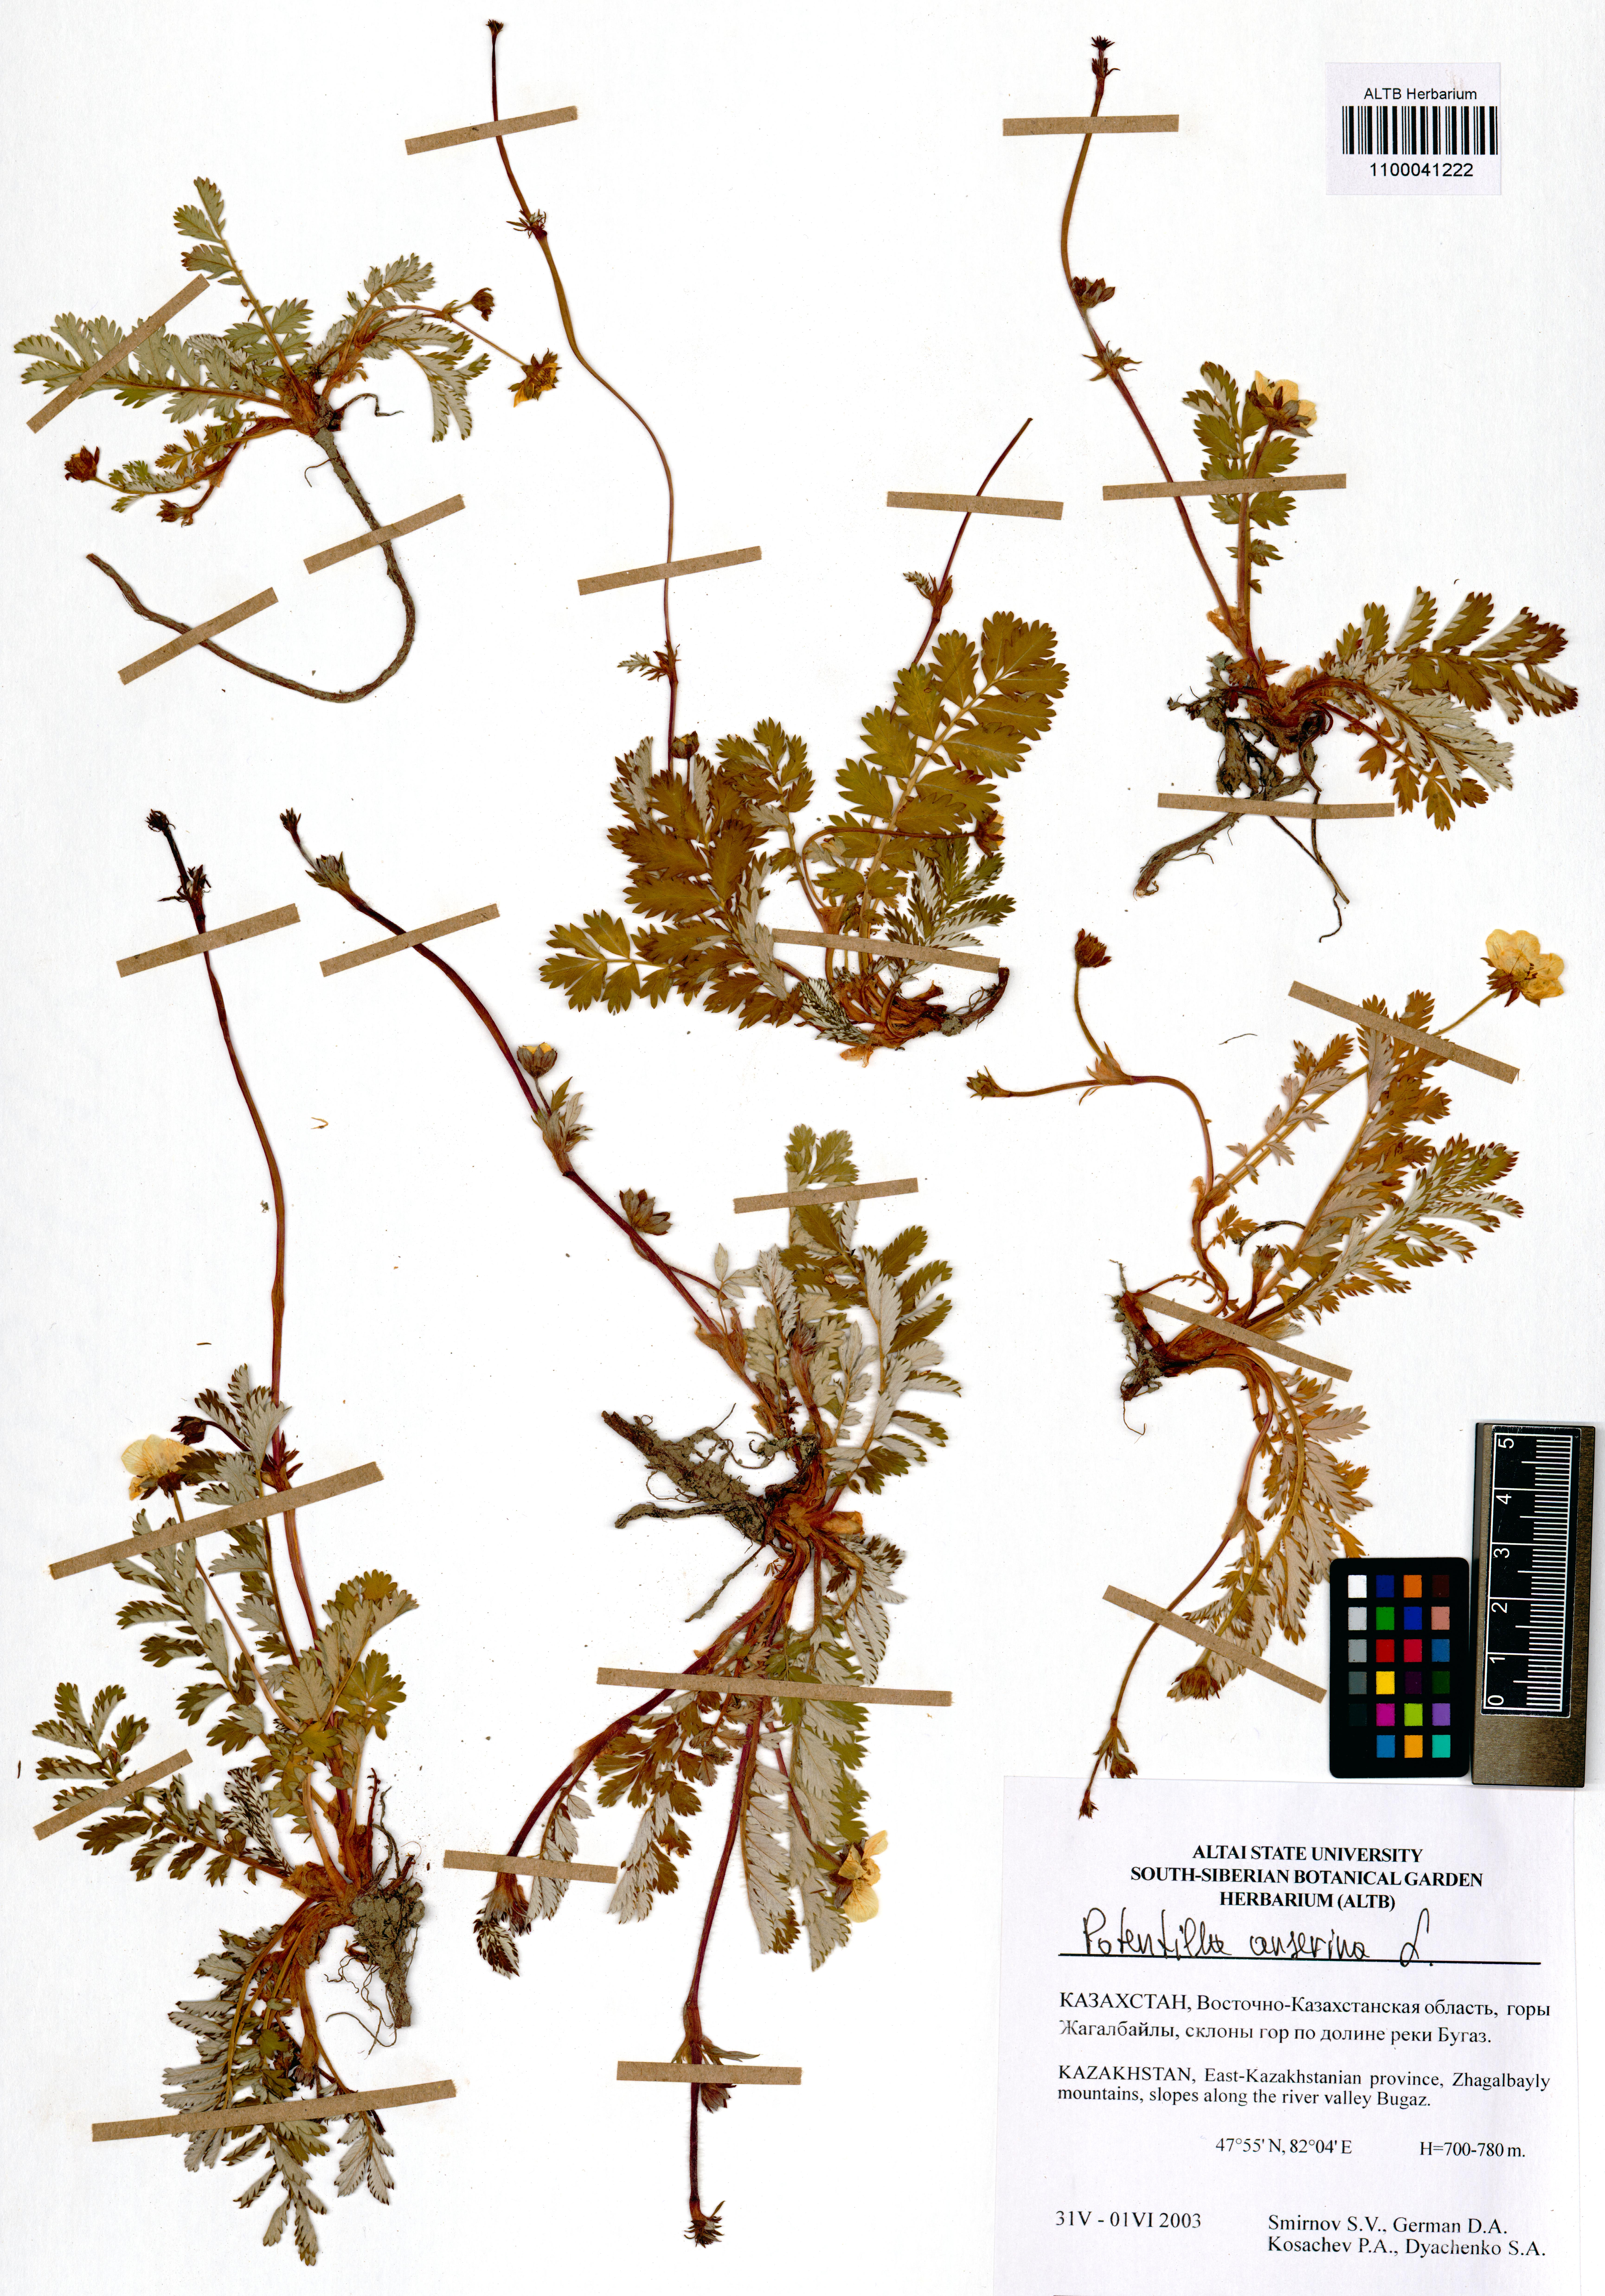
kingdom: Plantae
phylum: Tracheophyta
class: Magnoliopsida
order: Rosales
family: Rosaceae
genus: Argentina
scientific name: Argentina anserina
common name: Common silverweed
